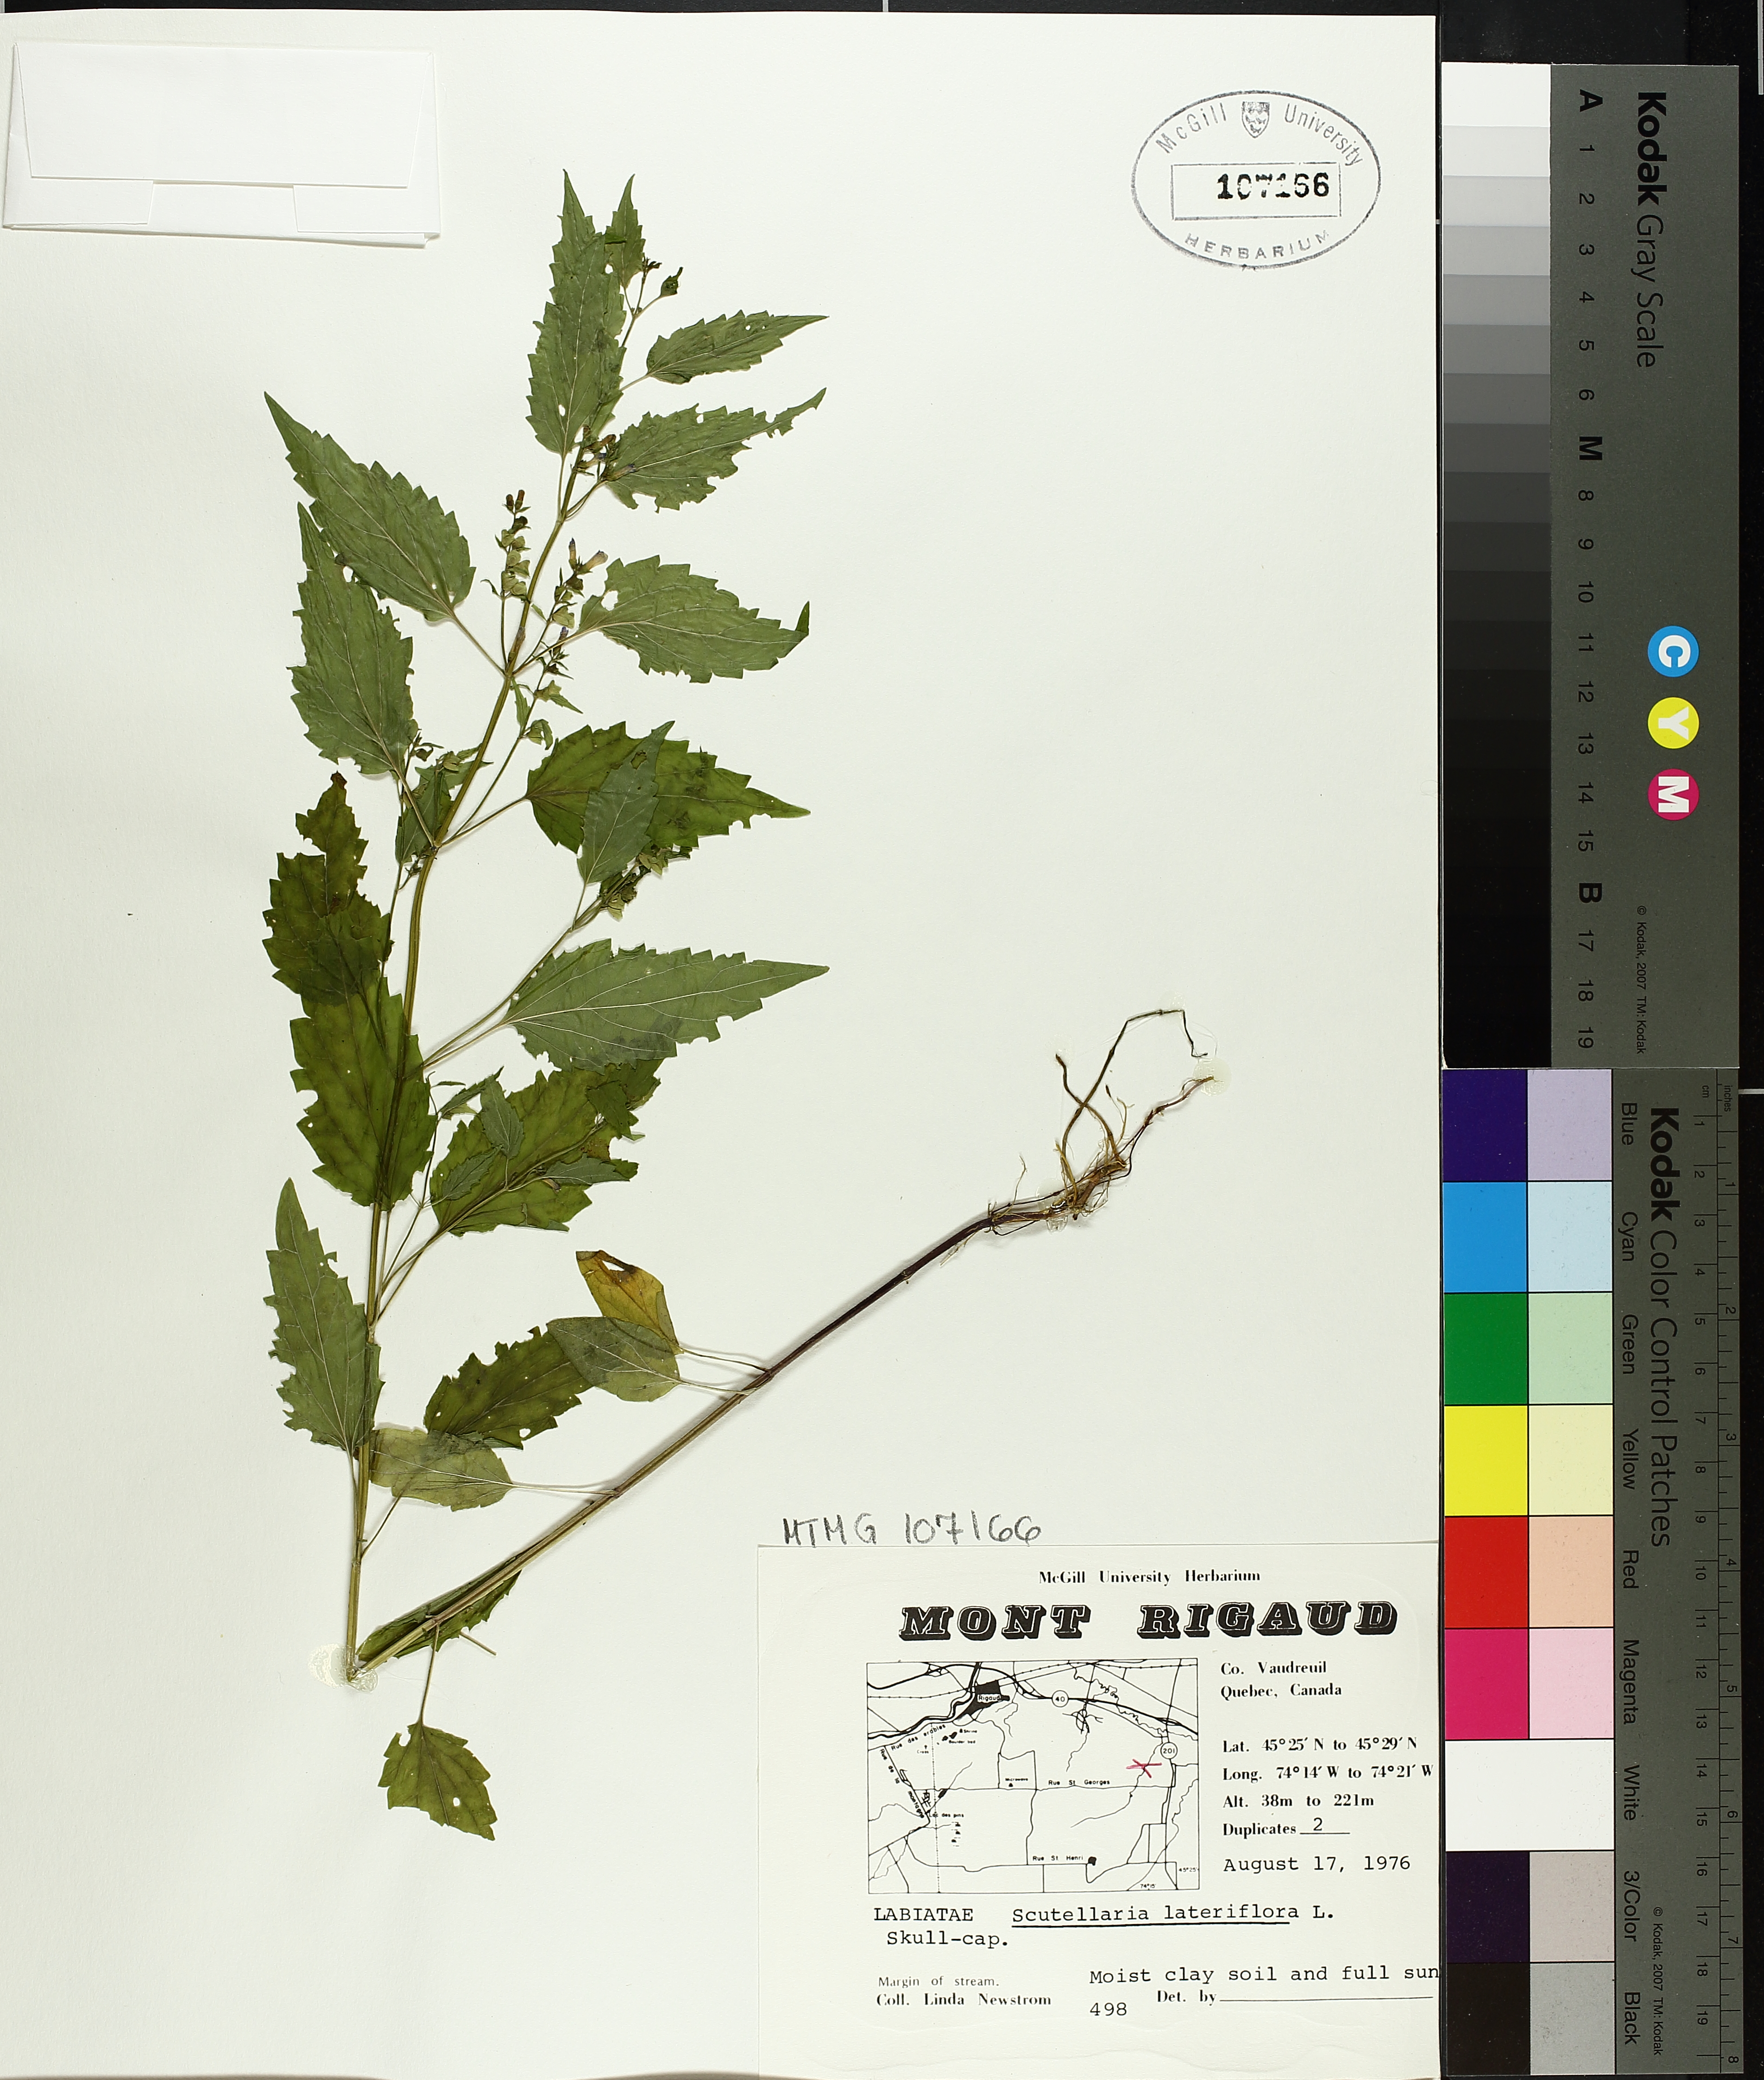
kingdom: Plantae
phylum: Tracheophyta
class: Magnoliopsida
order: Lamiales
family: Lamiaceae
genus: Scutellaria
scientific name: Scutellaria lateriflora
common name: Blue skullcap
